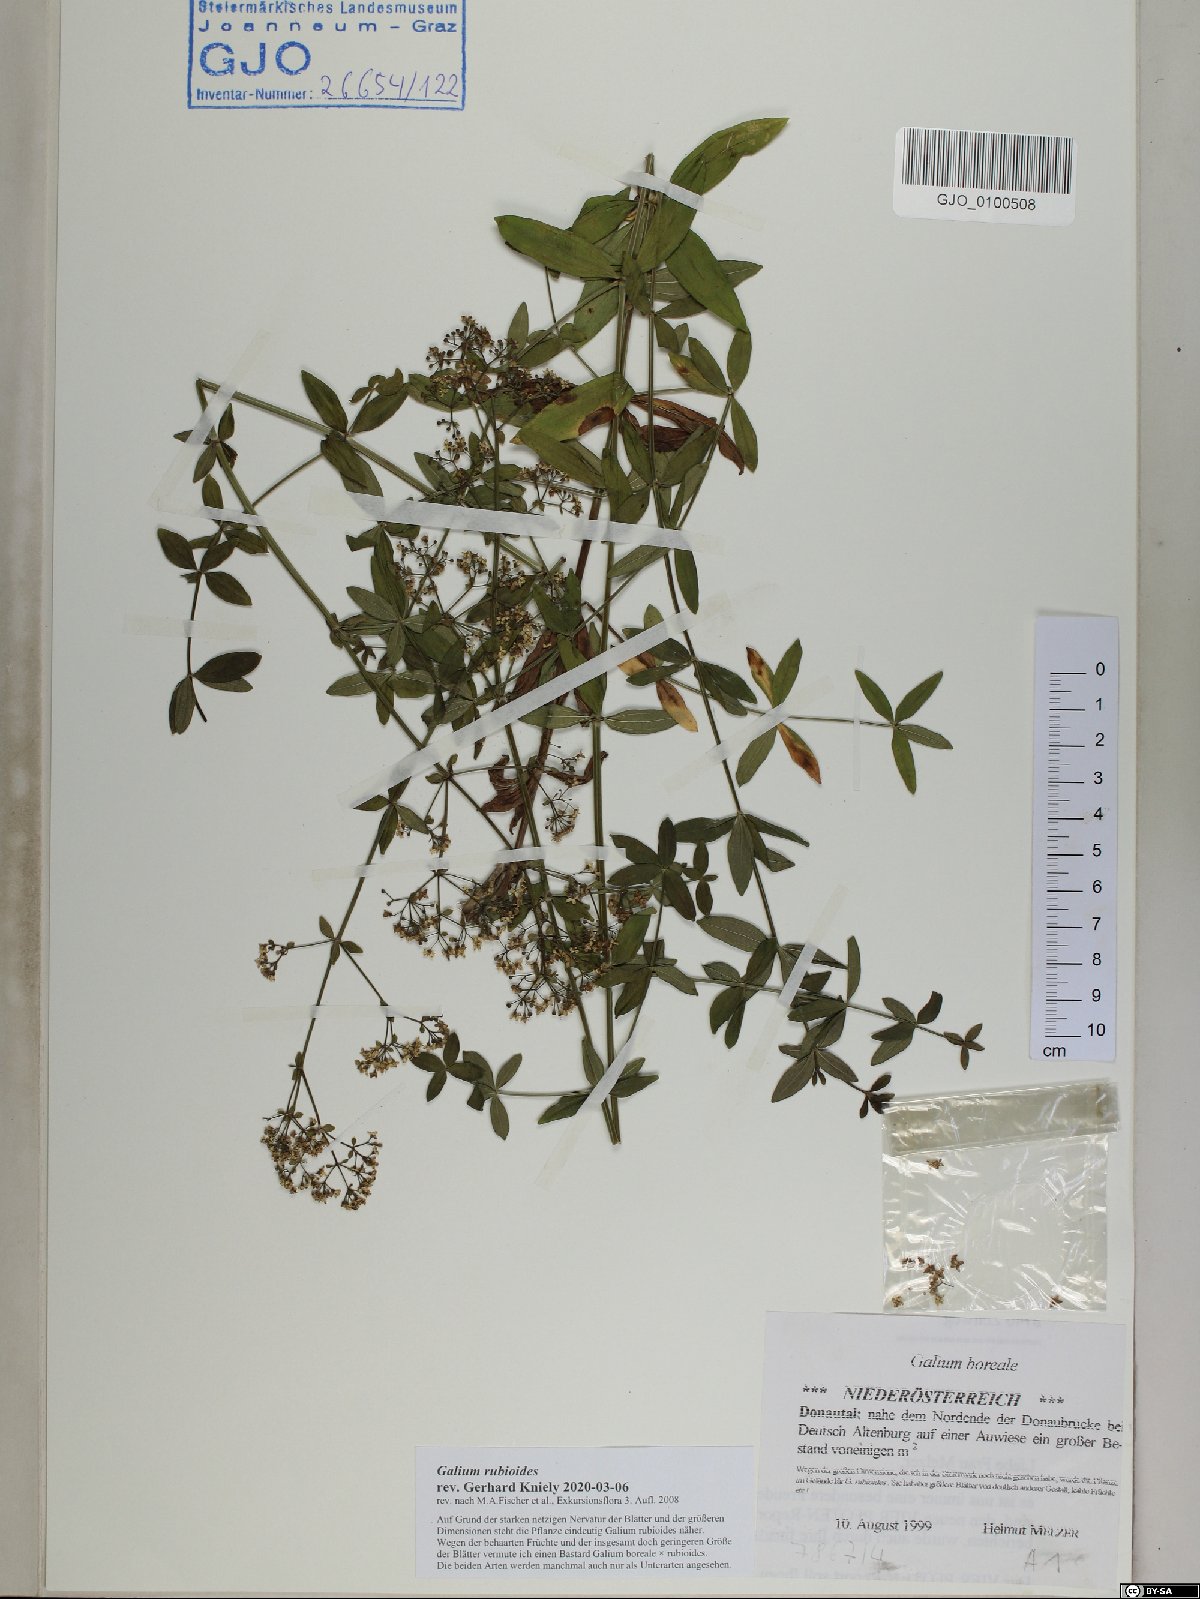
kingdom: Plantae
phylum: Tracheophyta
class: Magnoliopsida
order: Gentianales
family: Rubiaceae
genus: Galium
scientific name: Galium rubioides
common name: European bedstraw
